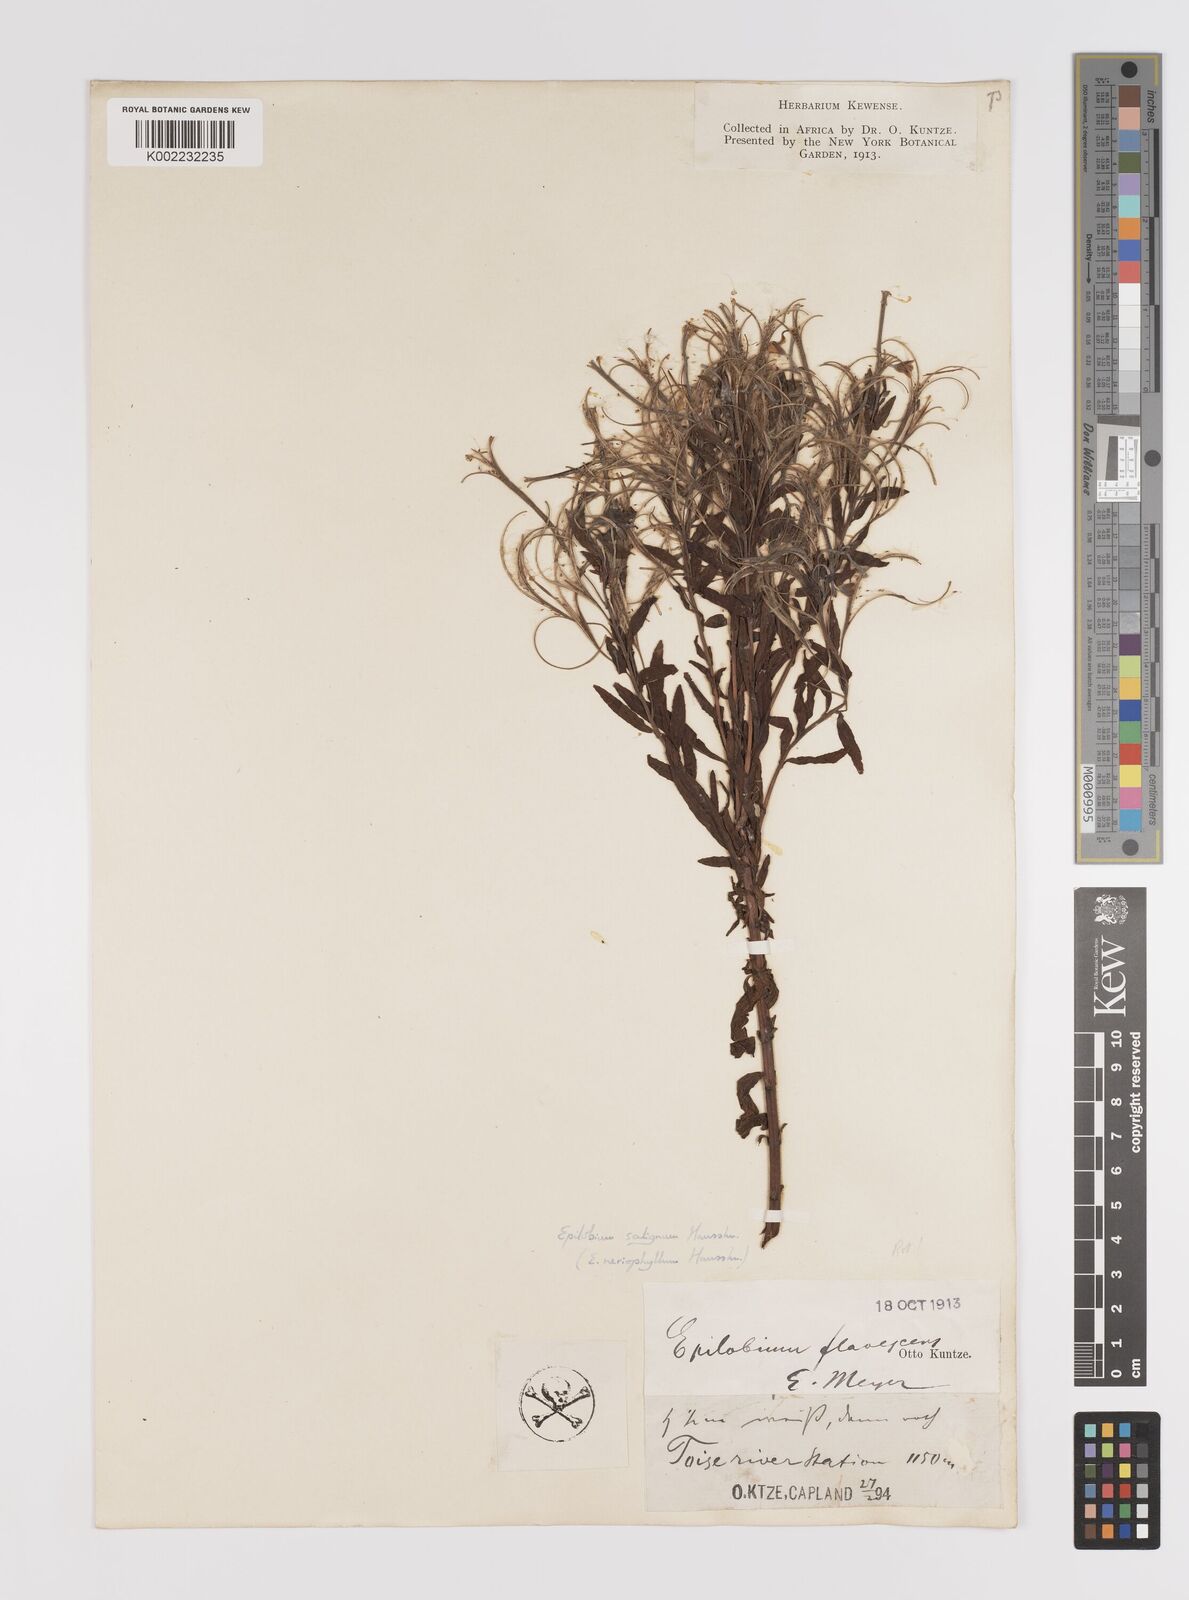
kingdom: Plantae
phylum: Tracheophyta
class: Magnoliopsida
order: Myrtales
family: Onagraceae
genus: Epilobium
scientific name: Epilobium salignum
